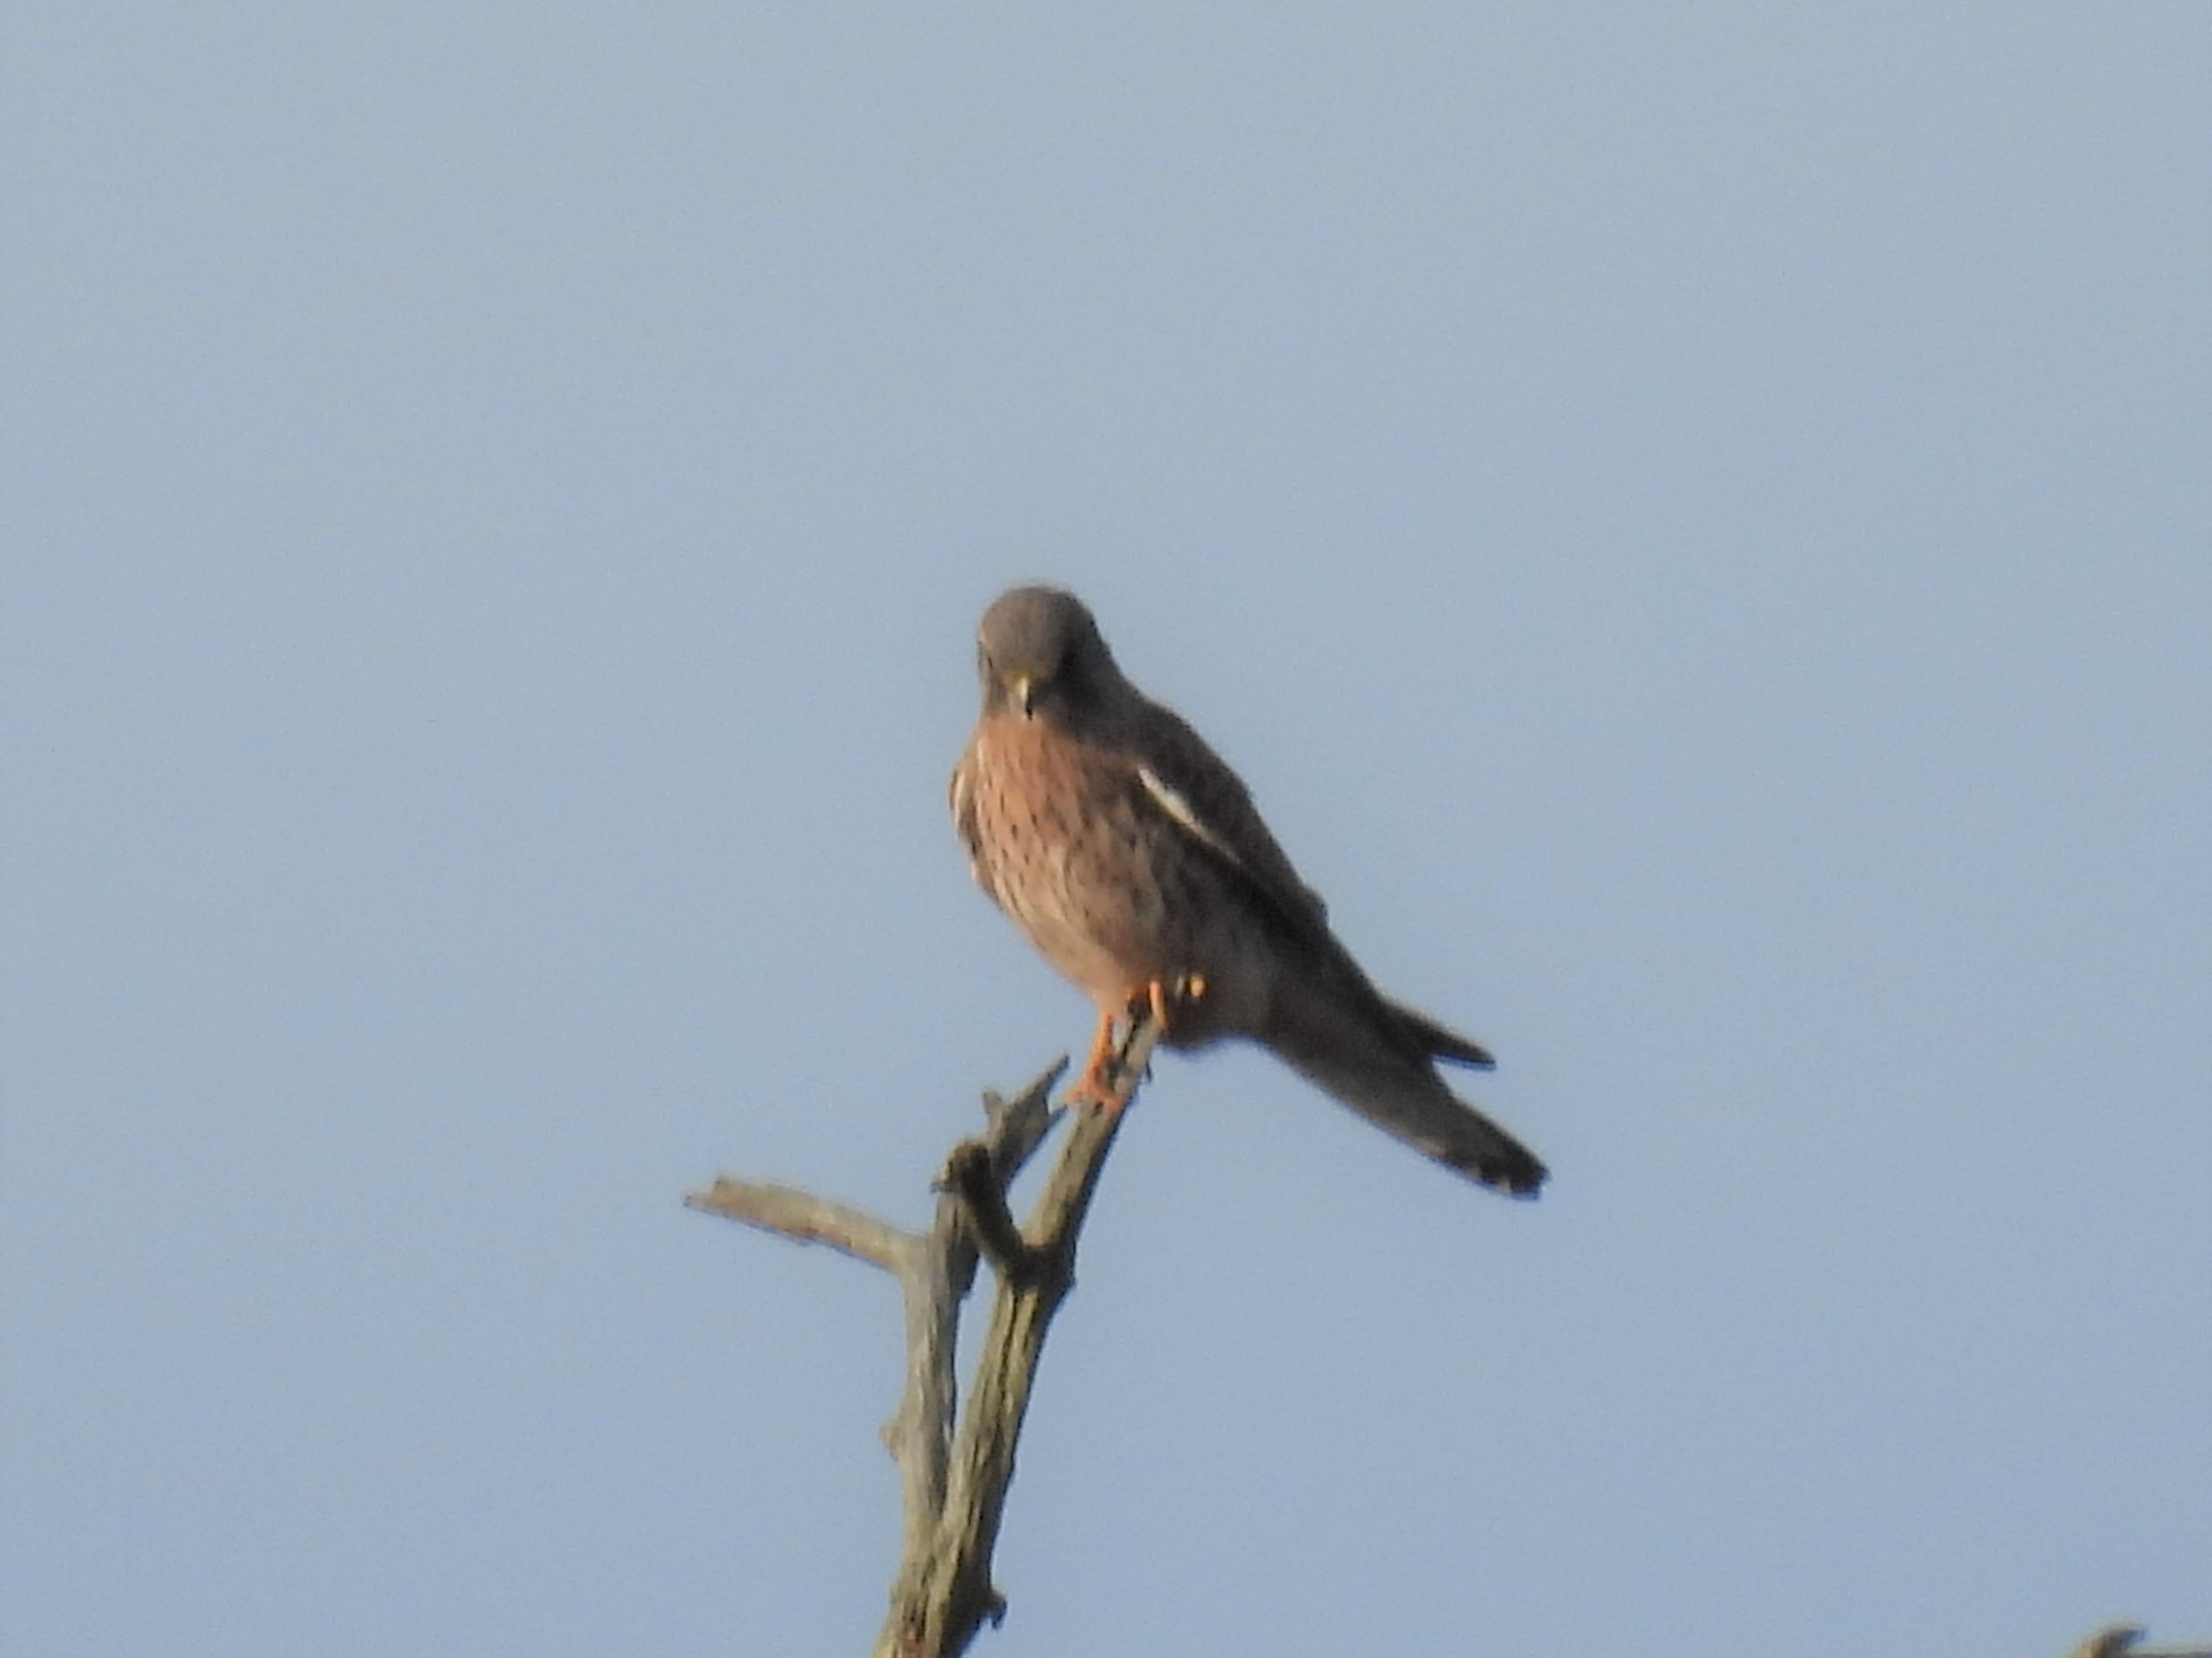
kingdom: Animalia
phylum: Chordata
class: Aves
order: Falconiformes
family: Falconidae
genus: Falco
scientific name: Falco tinnunculus
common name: Tårnfalk
